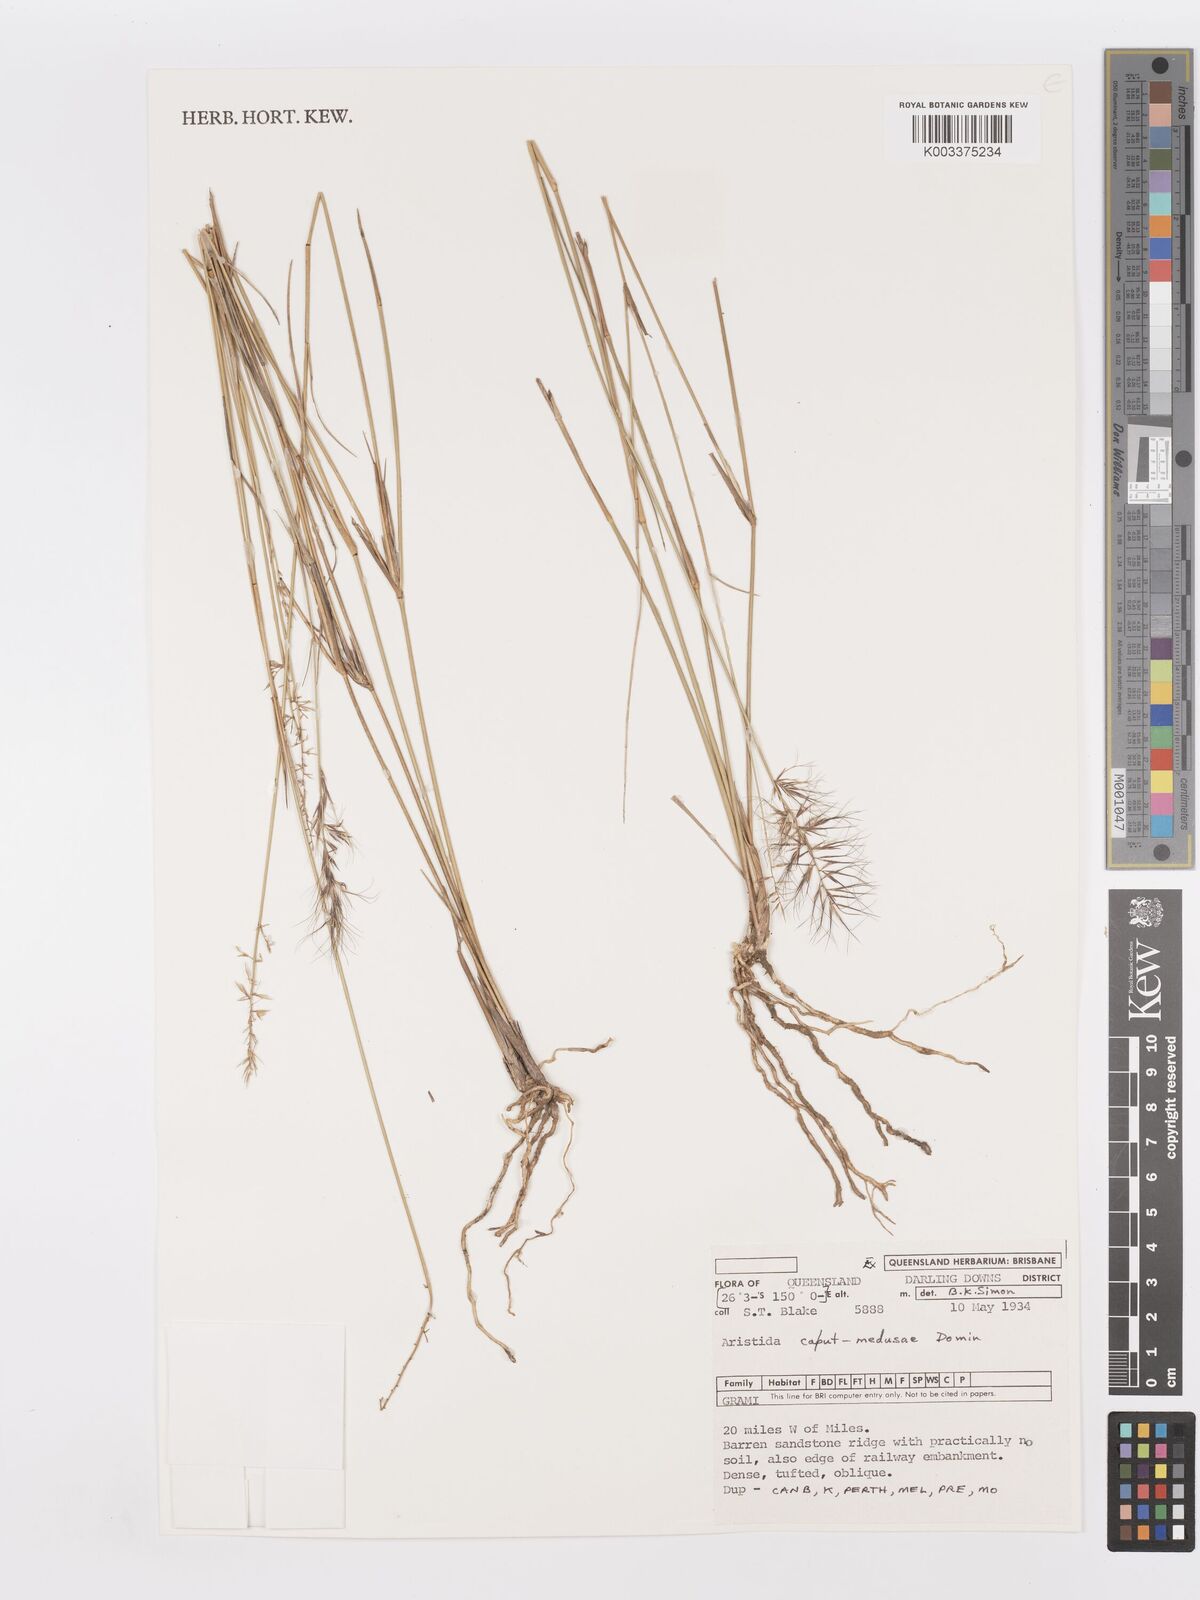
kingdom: Plantae
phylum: Tracheophyta
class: Liliopsida
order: Poales
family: Poaceae
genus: Aristida
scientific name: Aristida caput-medusae
